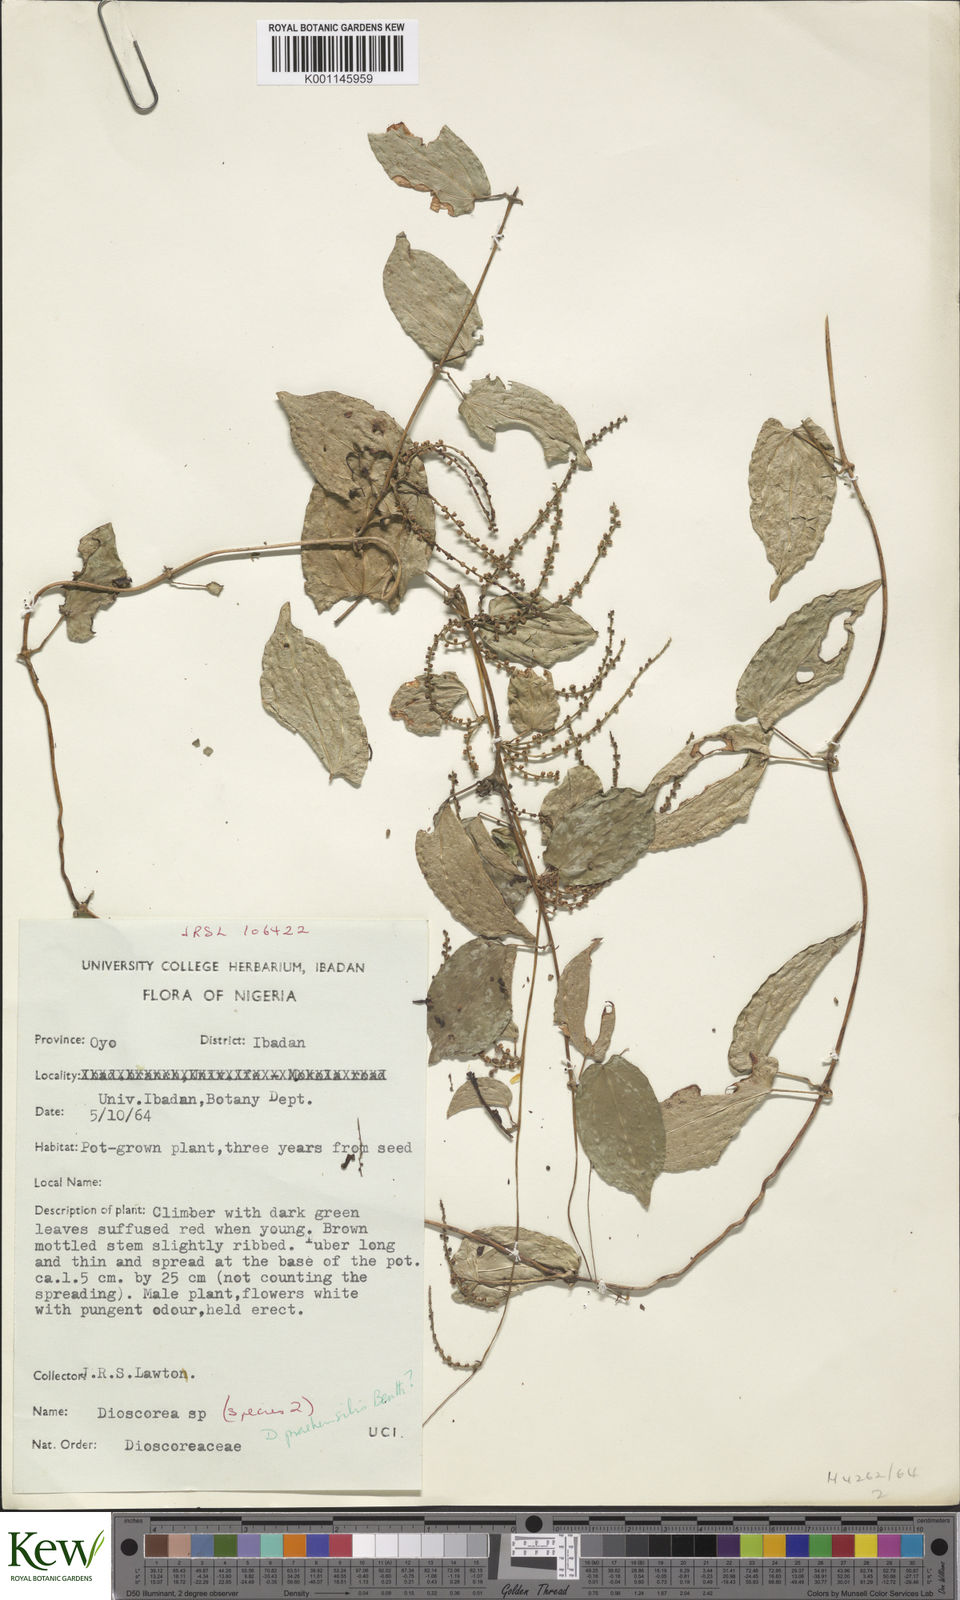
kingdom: Plantae
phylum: Tracheophyta
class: Liliopsida
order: Dioscoreales
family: Dioscoreaceae
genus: Dioscorea
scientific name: Dioscorea praehensilis
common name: Bush yam
